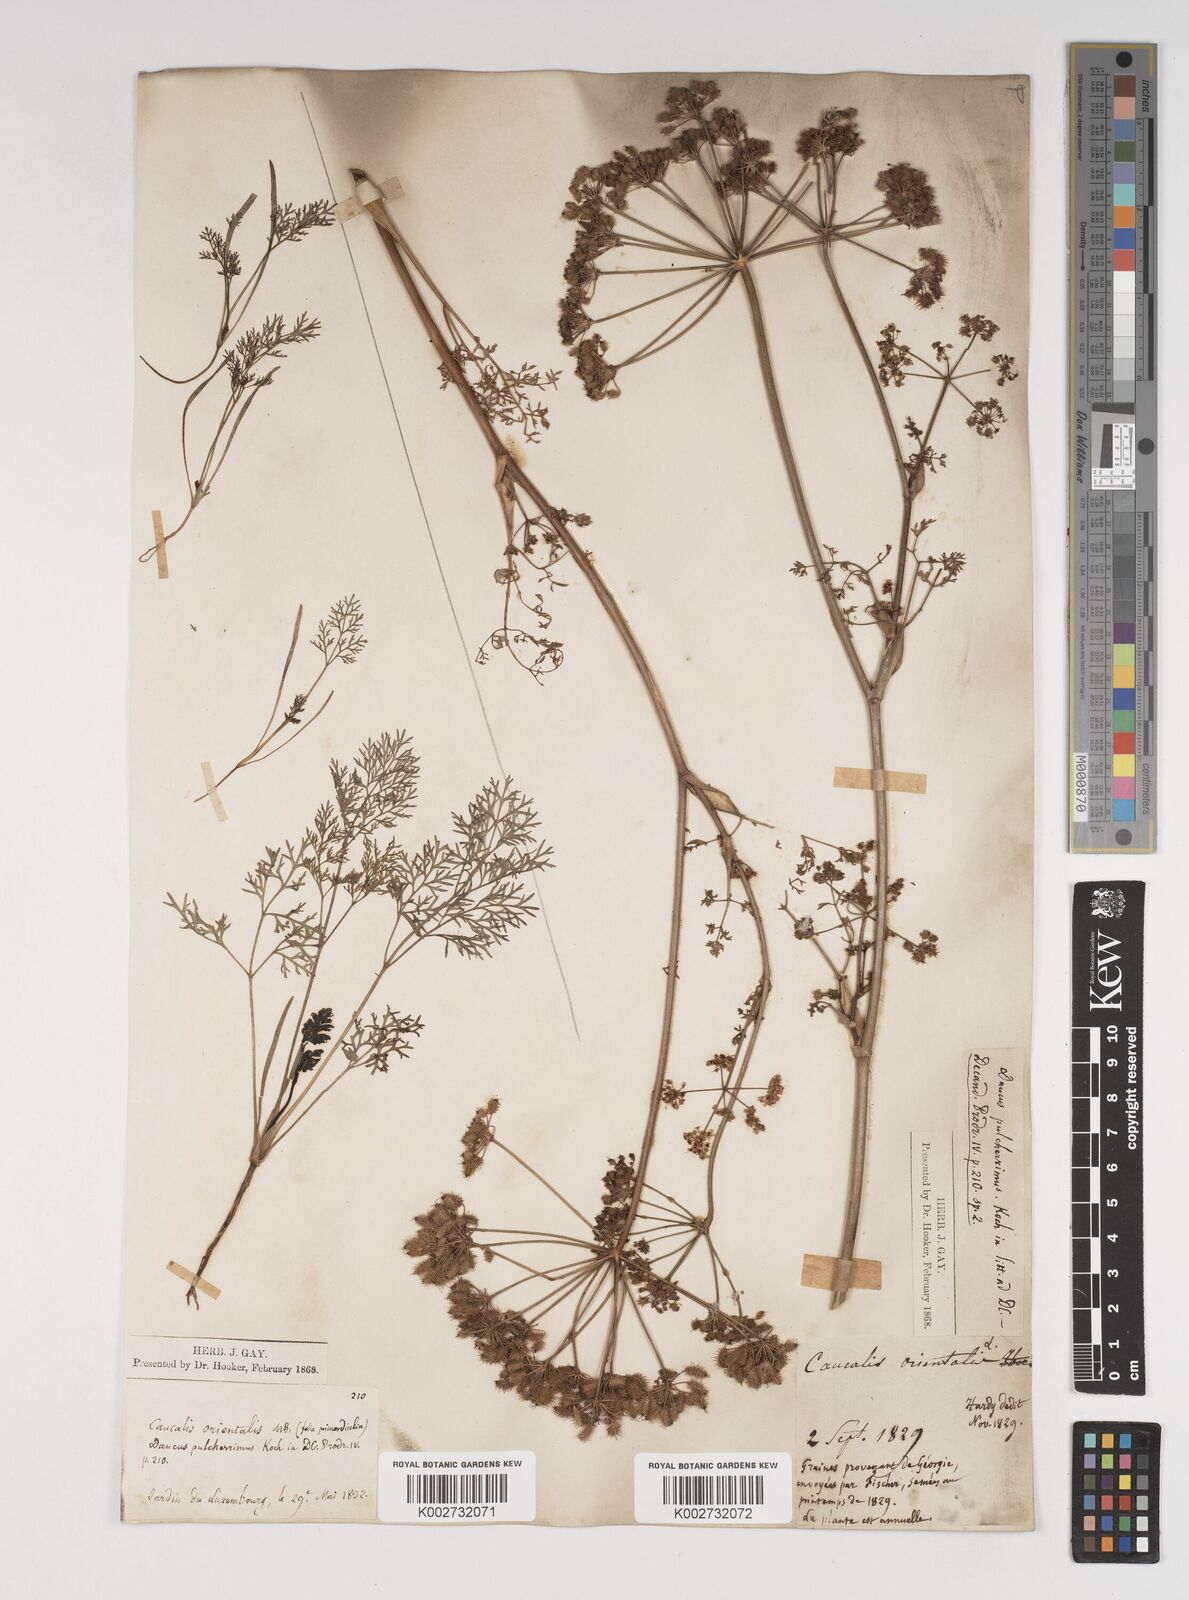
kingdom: Plantae
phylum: Tracheophyta
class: Magnoliopsida
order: Apiales
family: Apiaceae
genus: Astrodaucus
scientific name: Astrodaucus
